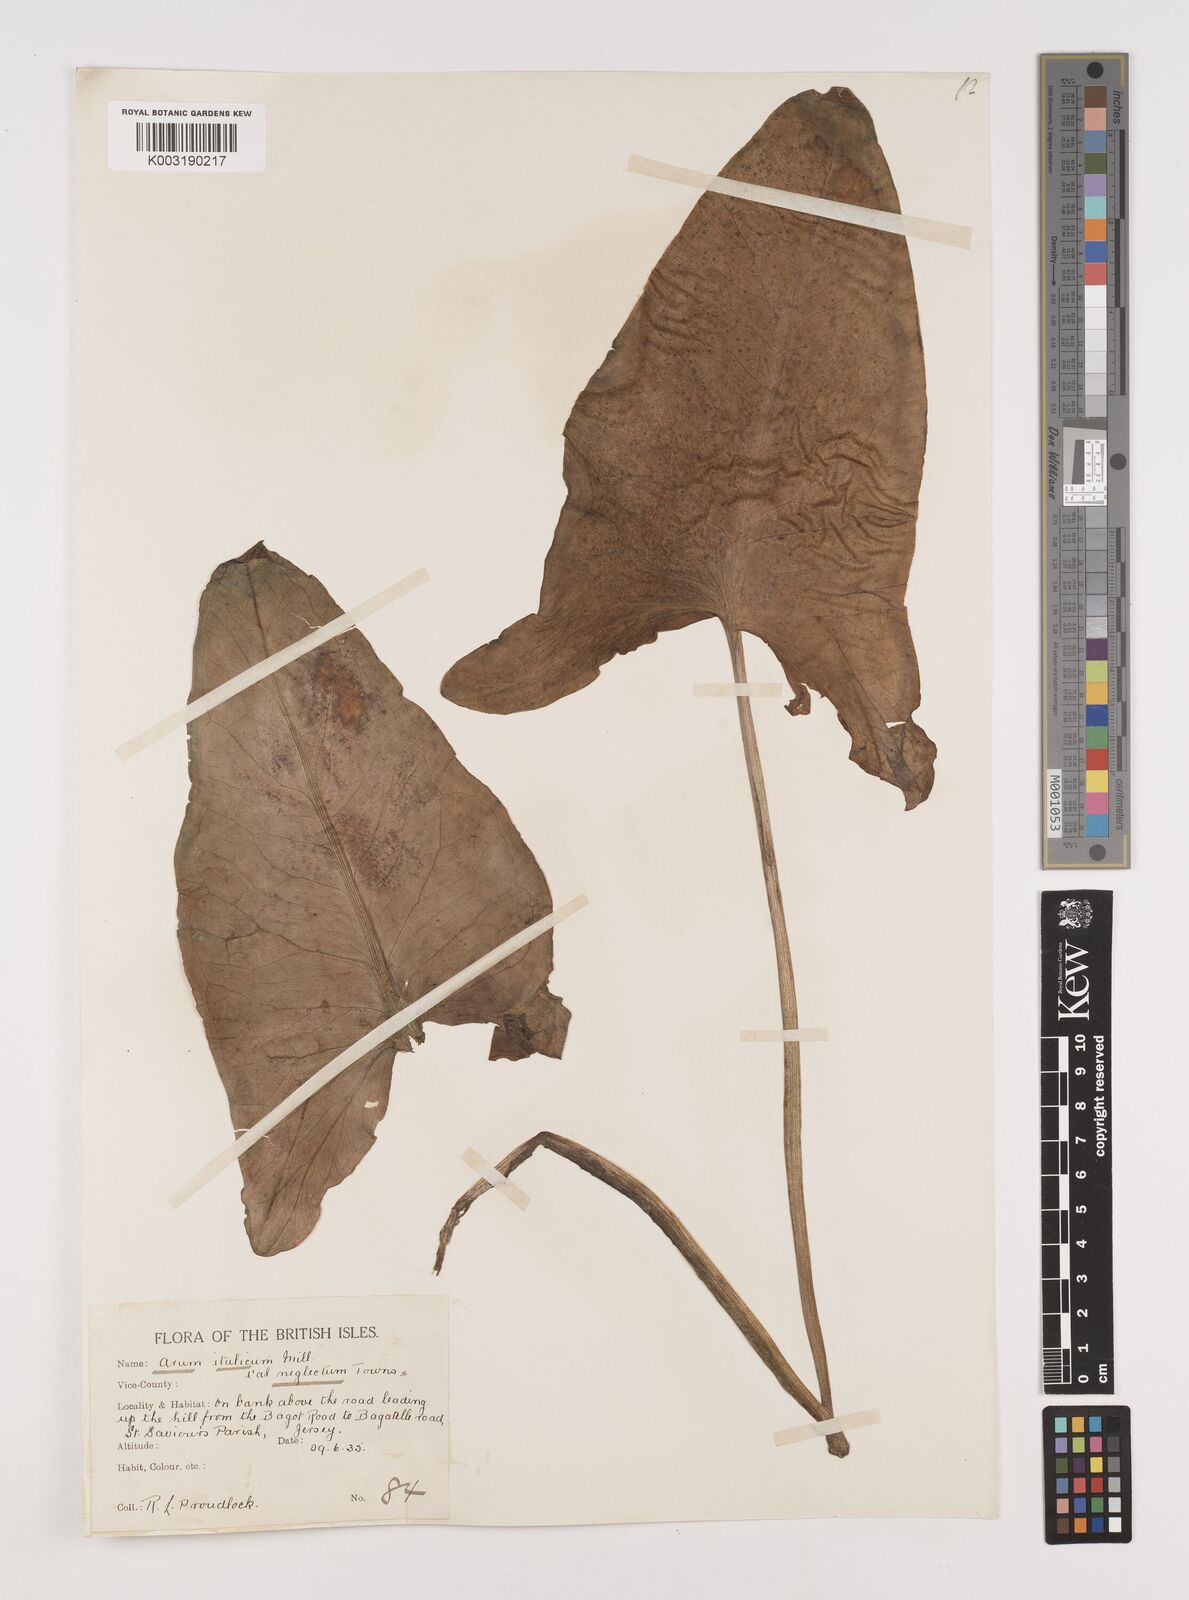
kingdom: Plantae
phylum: Tracheophyta
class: Liliopsida
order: Alismatales
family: Araceae
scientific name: Araceae
